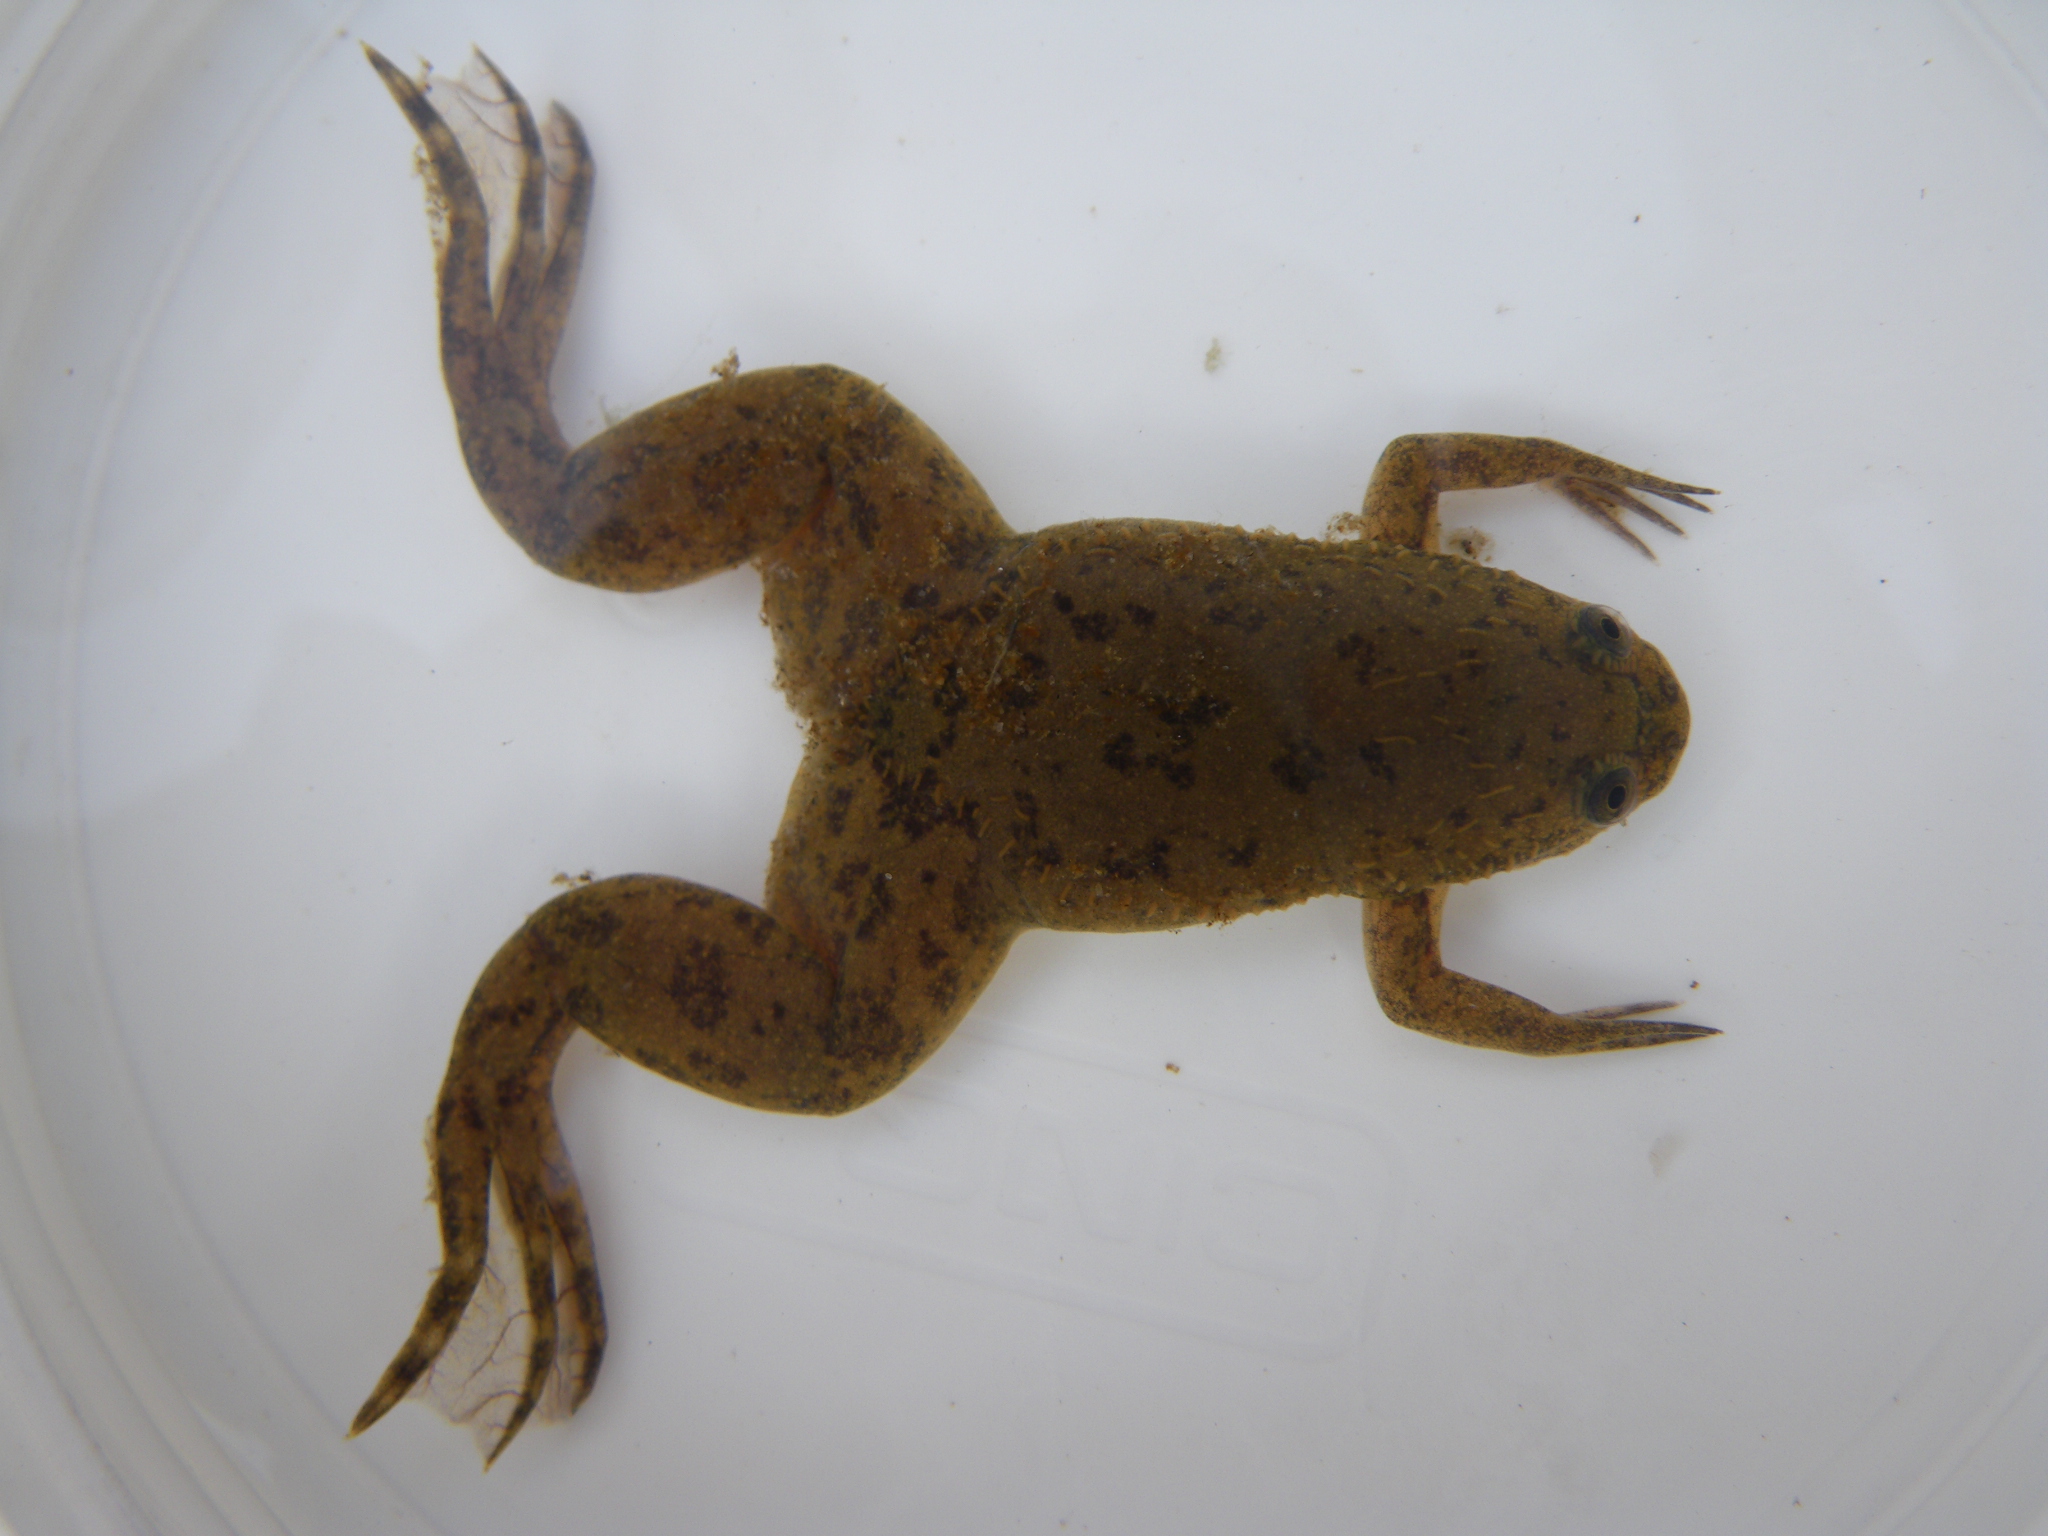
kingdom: Animalia
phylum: Chordata
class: Amphibia
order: Anura
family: Pipidae
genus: Xenopus
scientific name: Xenopus
